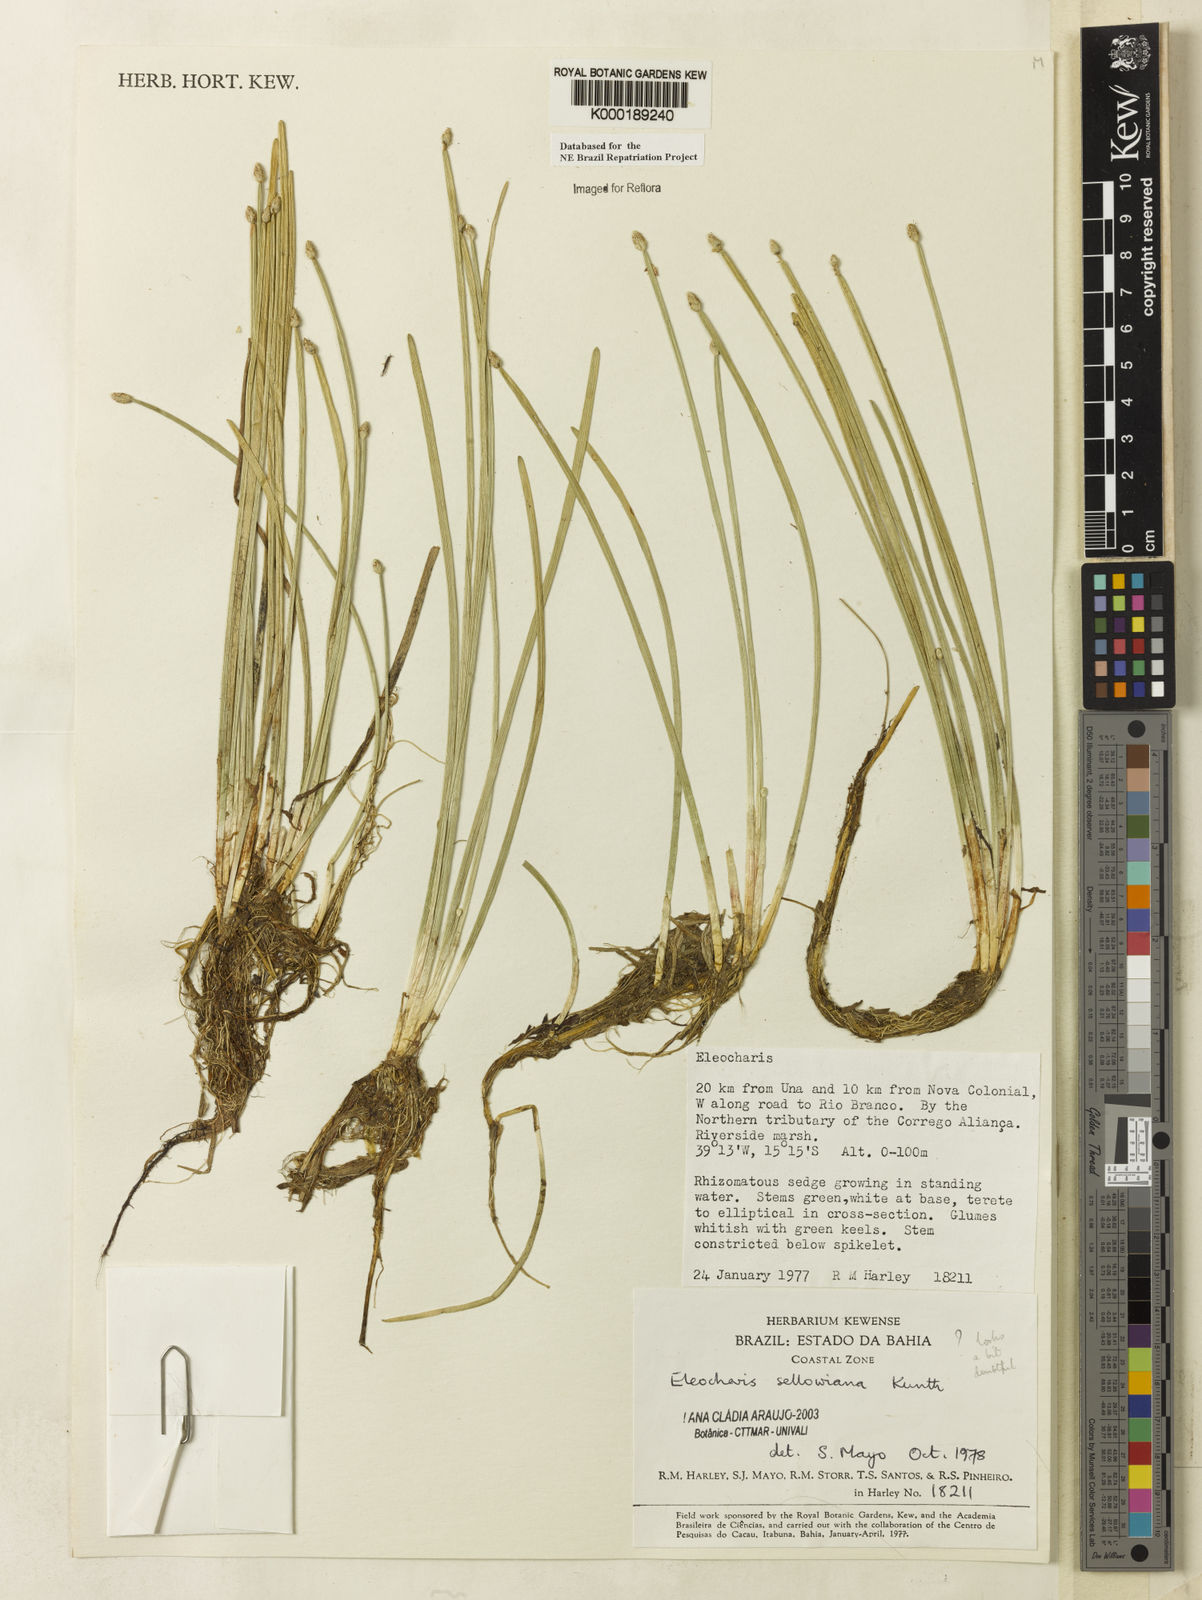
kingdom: Plantae
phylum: Tracheophyta
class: Liliopsida
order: Poales
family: Cyperaceae
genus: Eleocharis
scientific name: Eleocharis sellowiana
